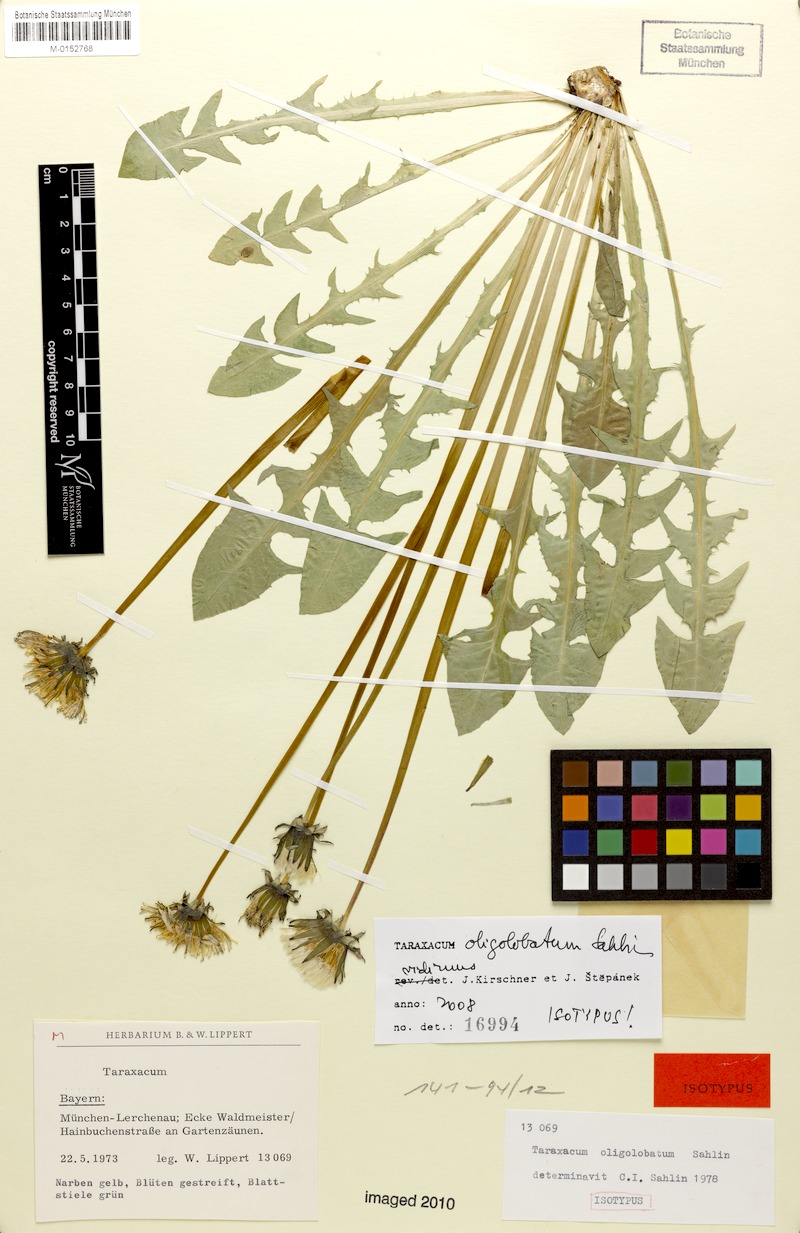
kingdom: Plantae
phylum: Tracheophyta
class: Magnoliopsida
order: Asterales
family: Asteraceae
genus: Taraxacum
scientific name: Taraxacum oligolobatum
